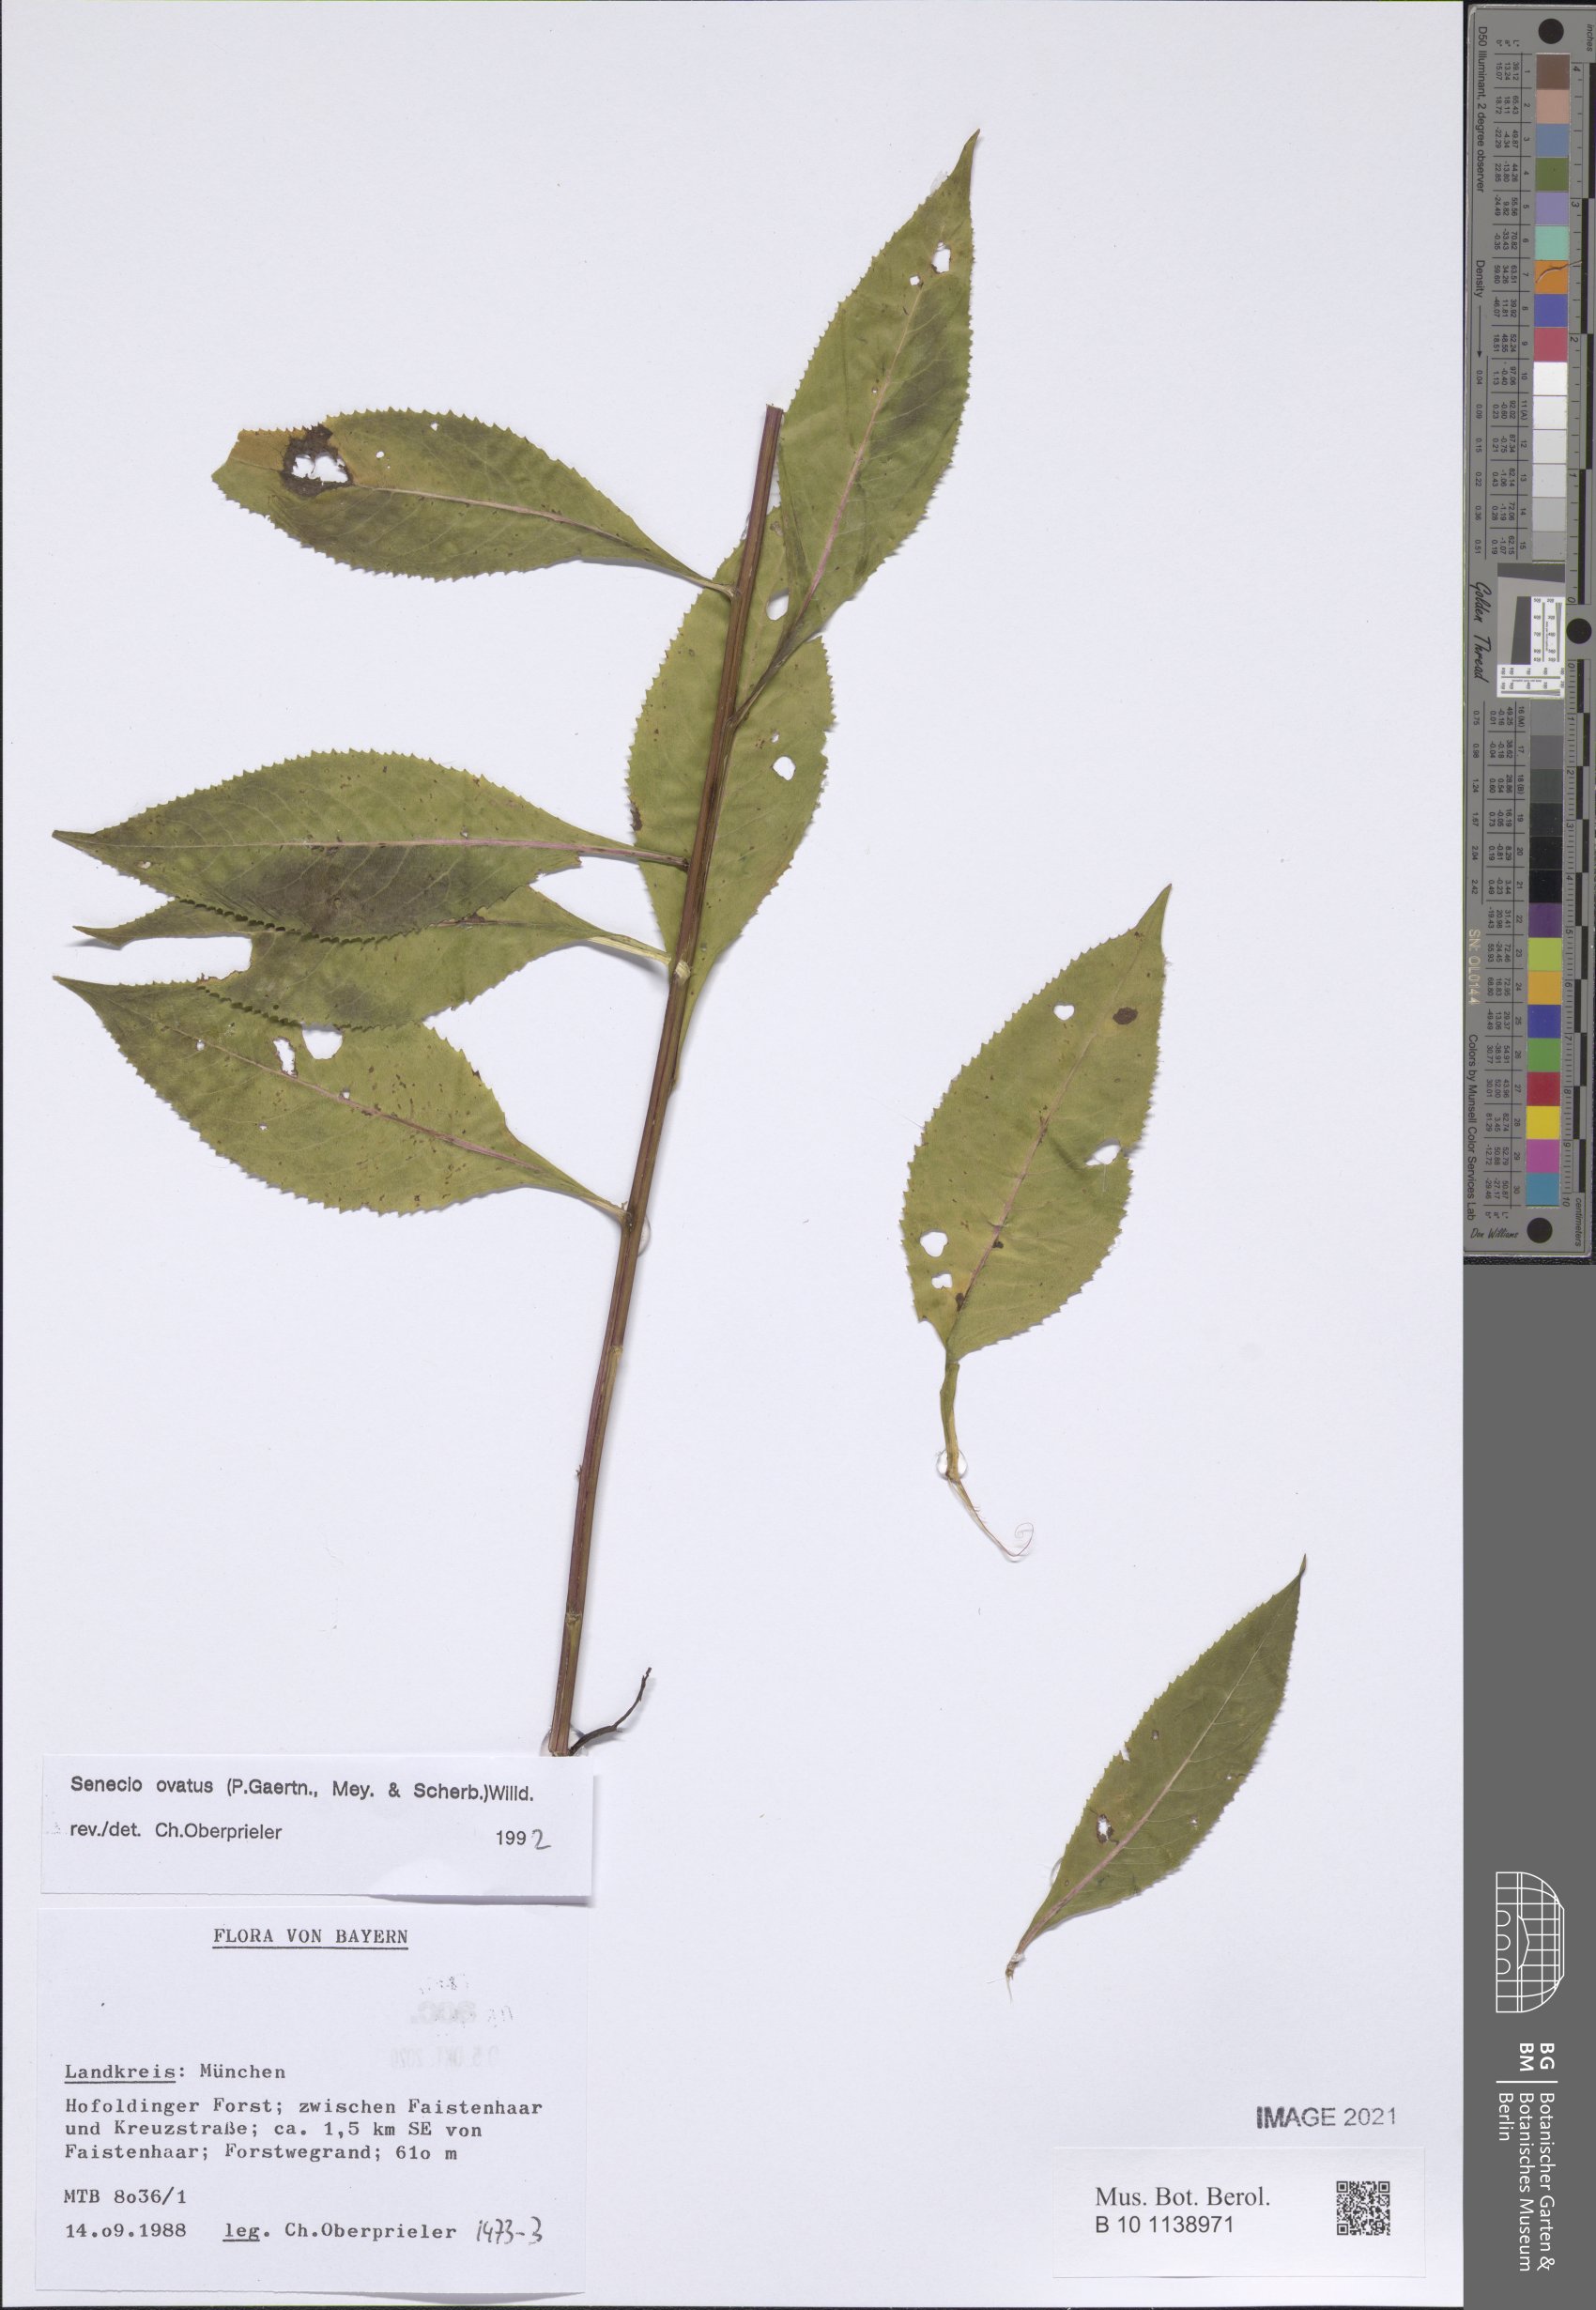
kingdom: Plantae
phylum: Tracheophyta
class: Magnoliopsida
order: Asterales
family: Asteraceae
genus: Senecio
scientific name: Senecio ovatus
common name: Wood ragwort
